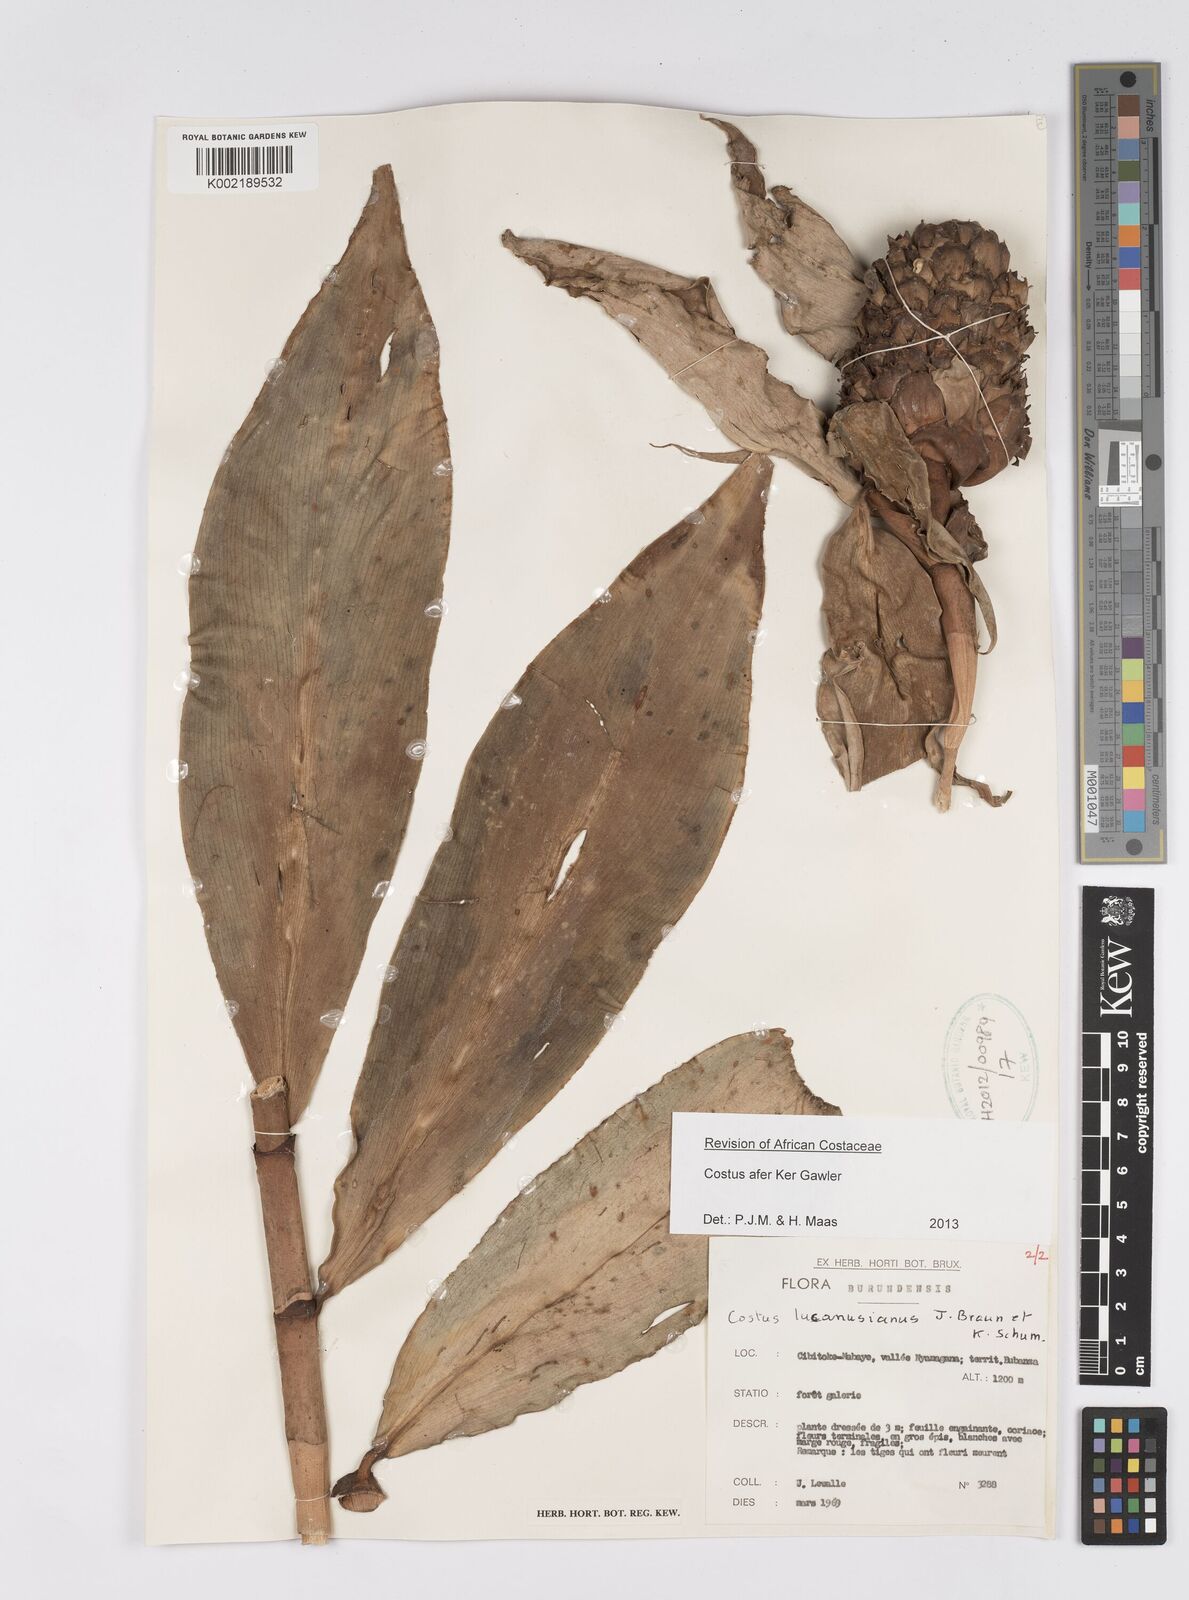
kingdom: Plantae
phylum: Tracheophyta
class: Liliopsida
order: Zingiberales
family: Costaceae
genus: Costus
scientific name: Costus afer
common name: Spiral-ginger
